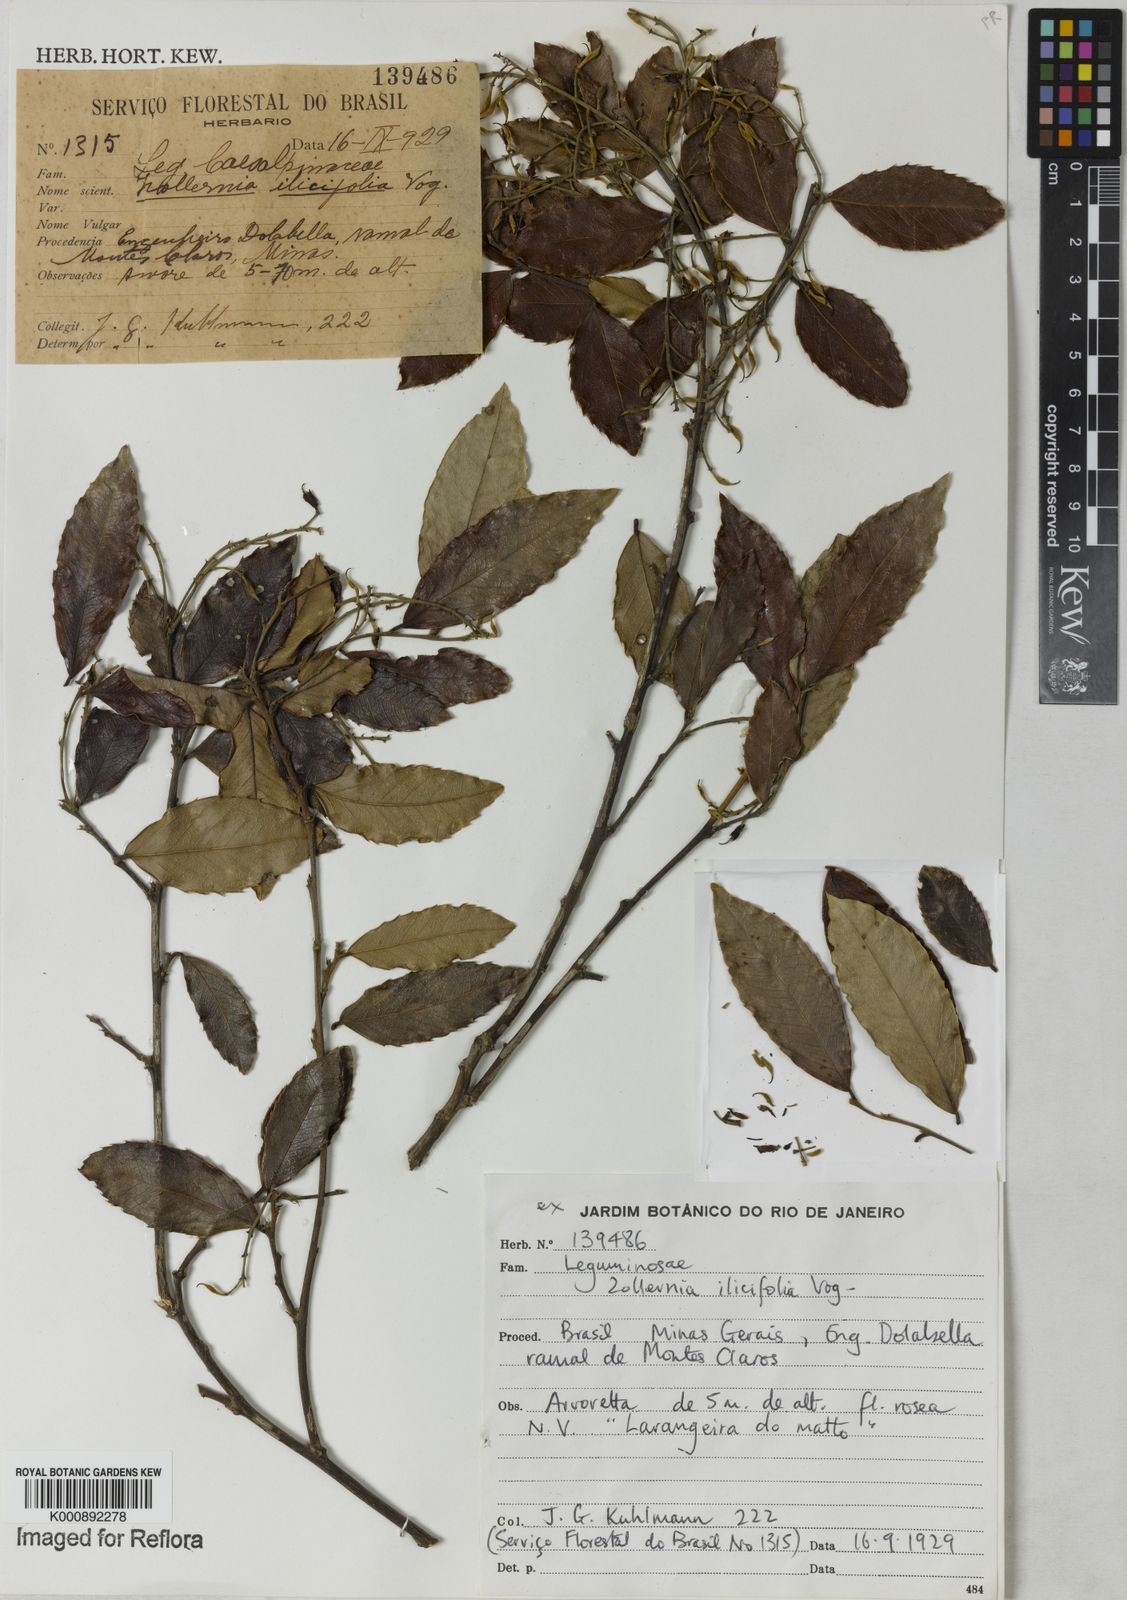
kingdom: Plantae
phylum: Tracheophyta
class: Magnoliopsida
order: Fabales
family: Fabaceae
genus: Zollernia
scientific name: Zollernia ilicifolia
